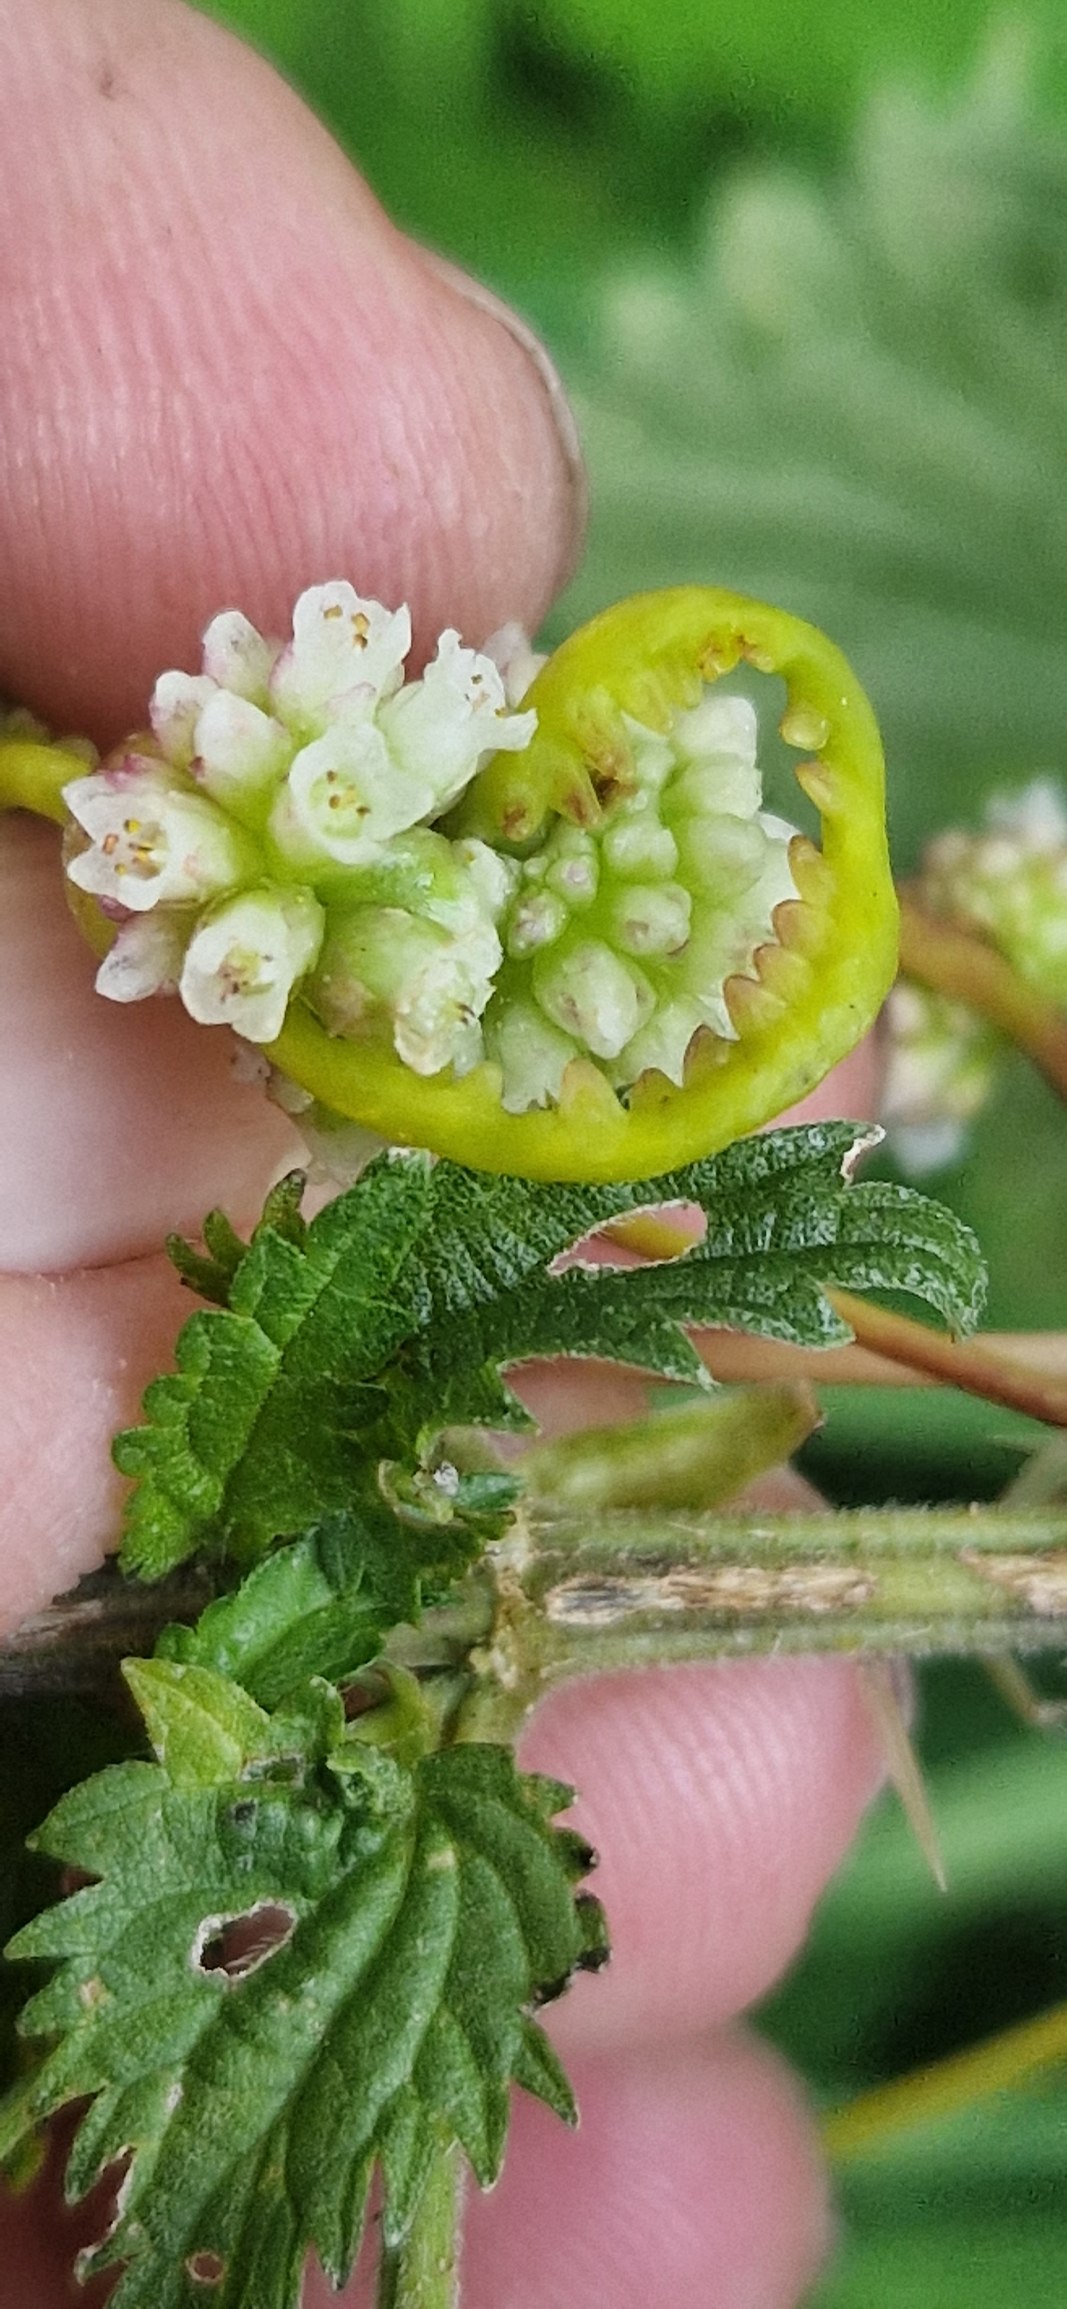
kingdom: Plantae
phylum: Tracheophyta
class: Magnoliopsida
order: Solanales
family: Convolvulaceae
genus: Cuscuta
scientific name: Cuscuta europaea
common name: Nælde-silke
